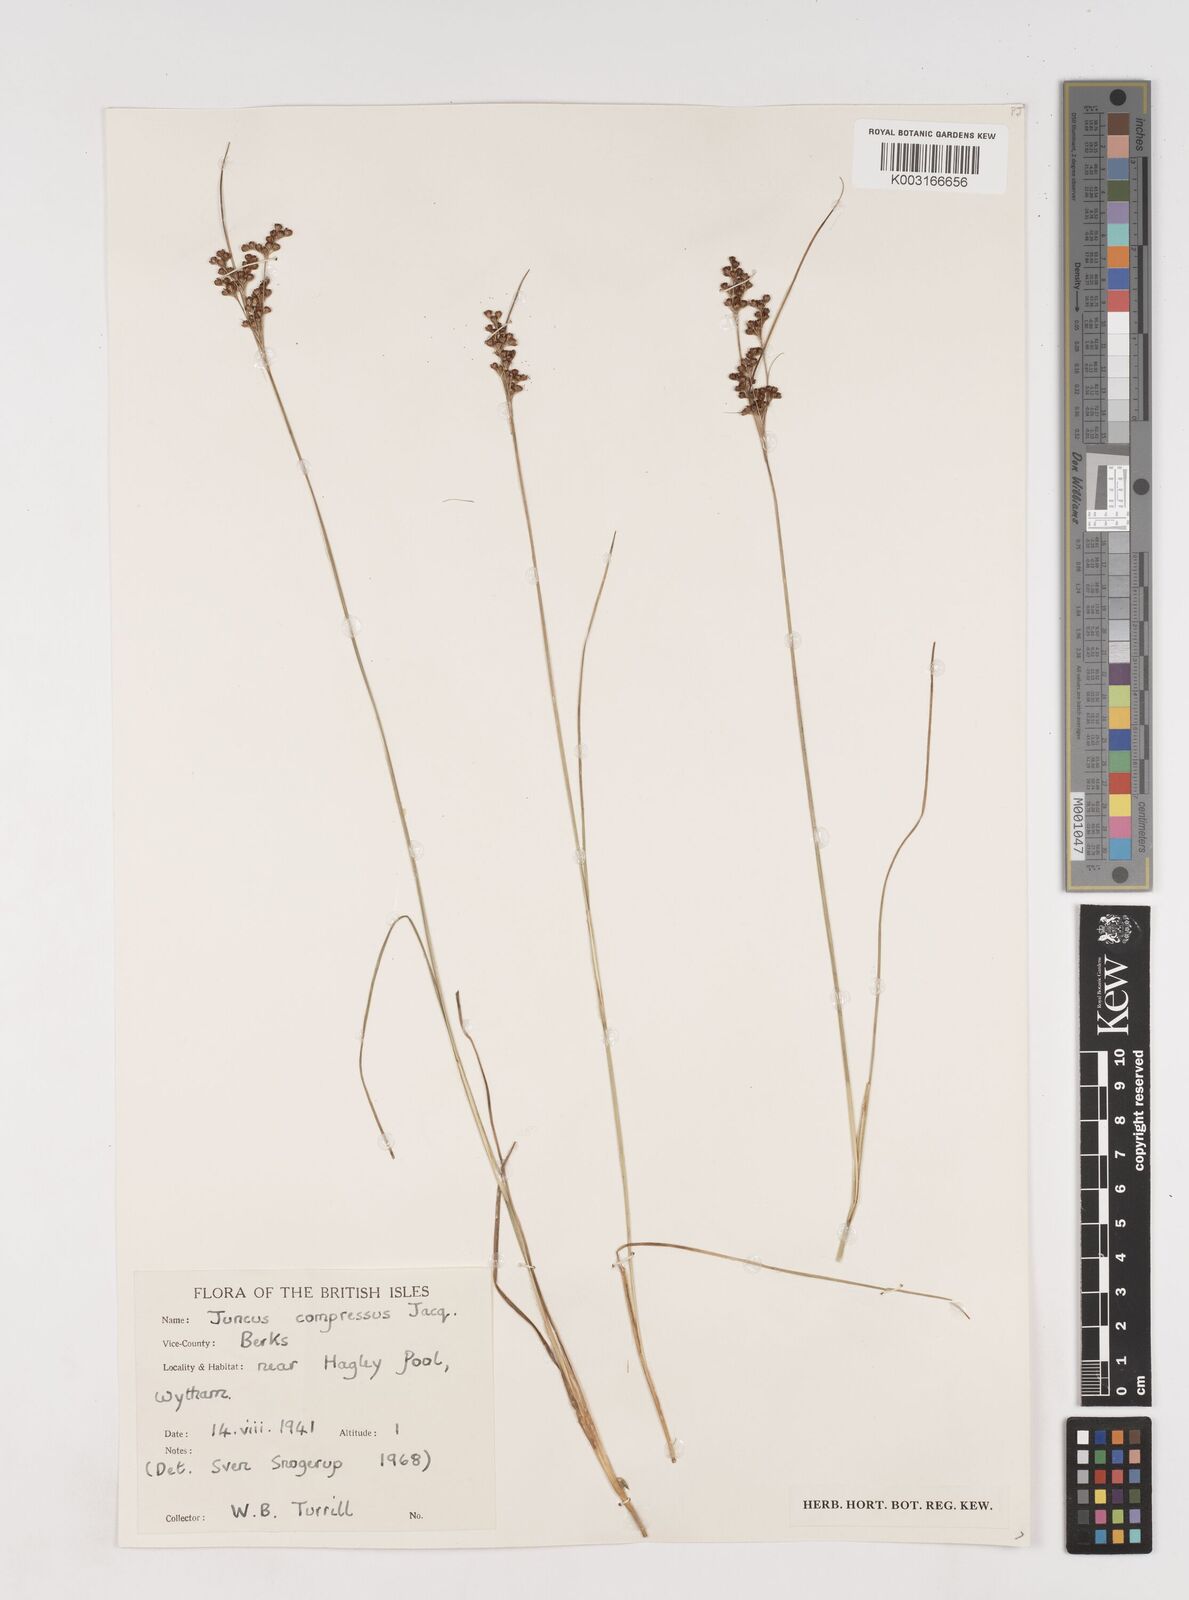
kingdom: Plantae
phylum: Tracheophyta
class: Liliopsida
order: Poales
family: Juncaceae
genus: Juncus
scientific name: Juncus compressus
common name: Round-fruited rush
